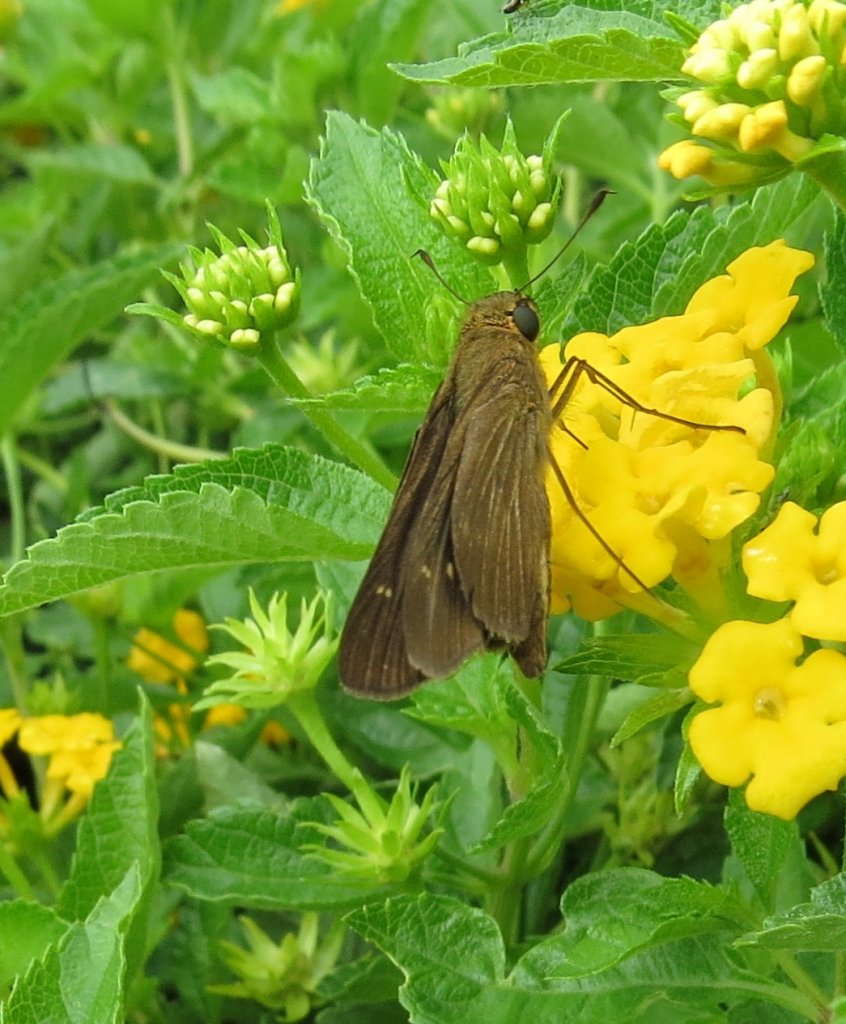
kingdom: Animalia
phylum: Arthropoda
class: Insecta
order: Lepidoptera
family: Hesperiidae
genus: Panoquina
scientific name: Panoquina ocola
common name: Ocola Skipper
